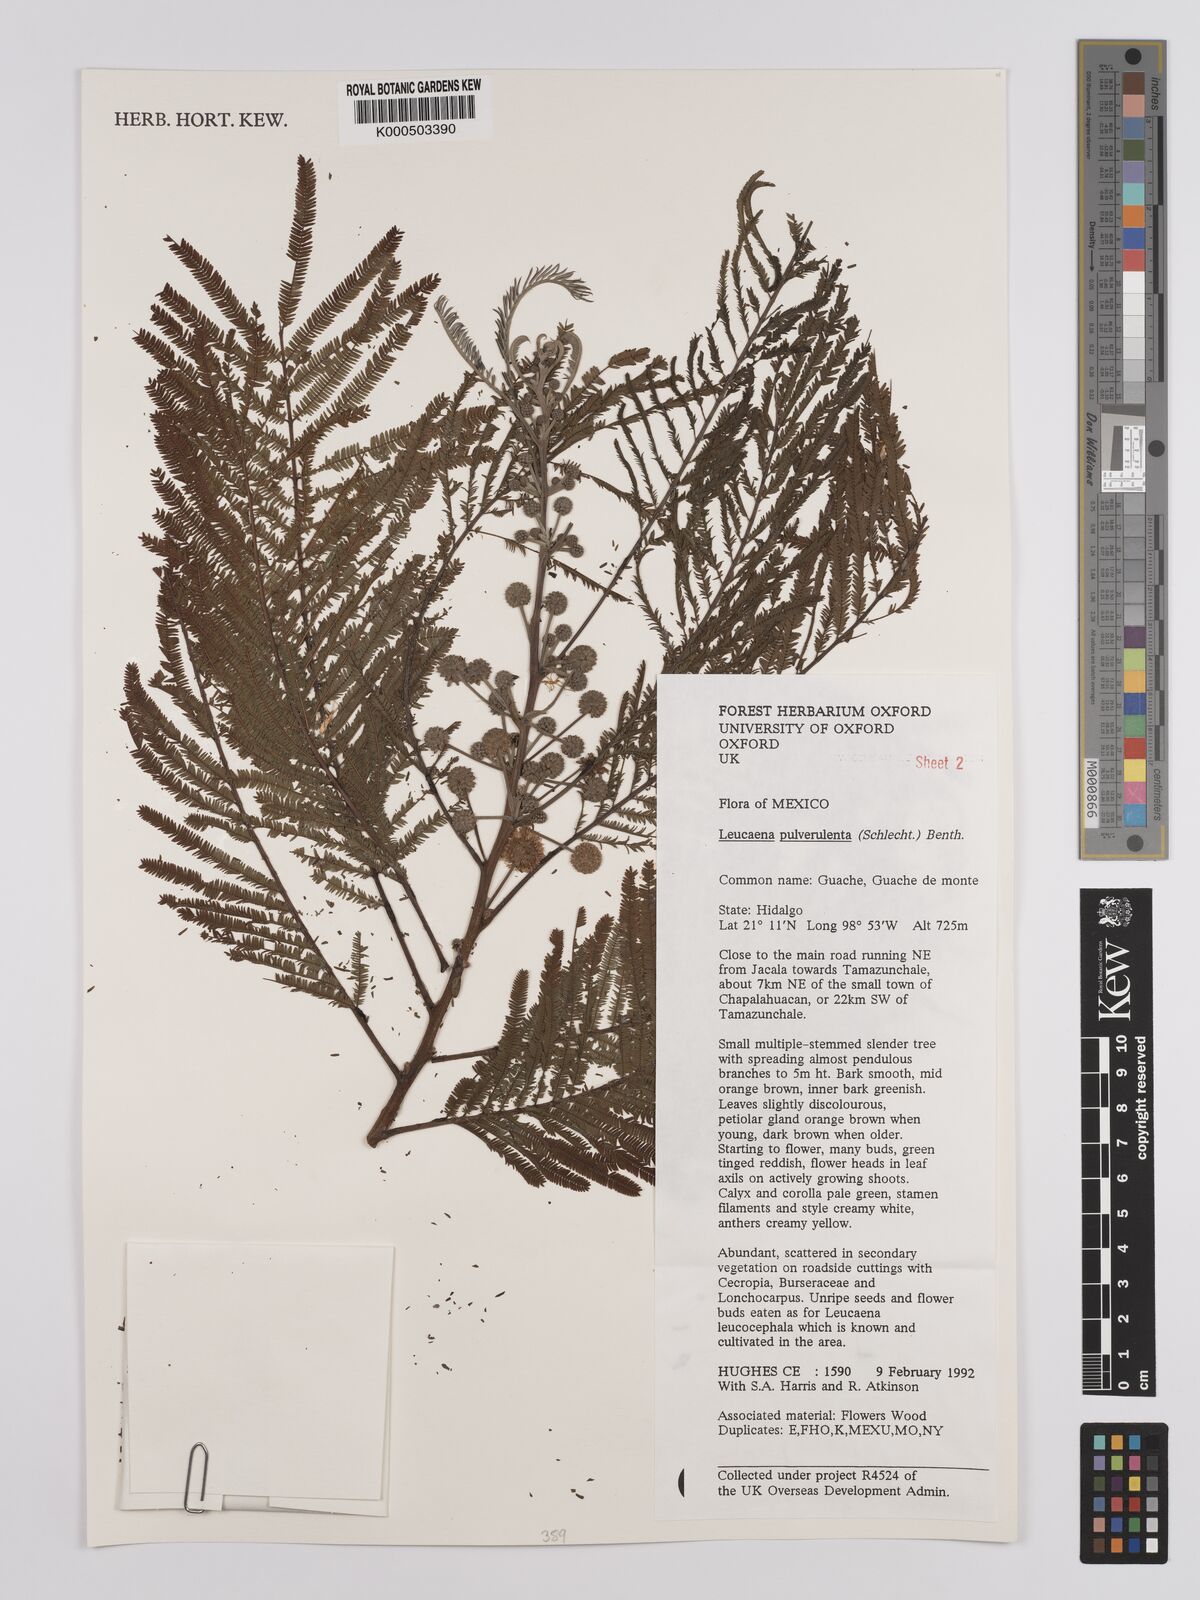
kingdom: Plantae
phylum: Tracheophyta
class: Magnoliopsida
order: Fabales
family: Fabaceae
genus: Leucaena
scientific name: Leucaena pulverulenta
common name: Great leadtree
